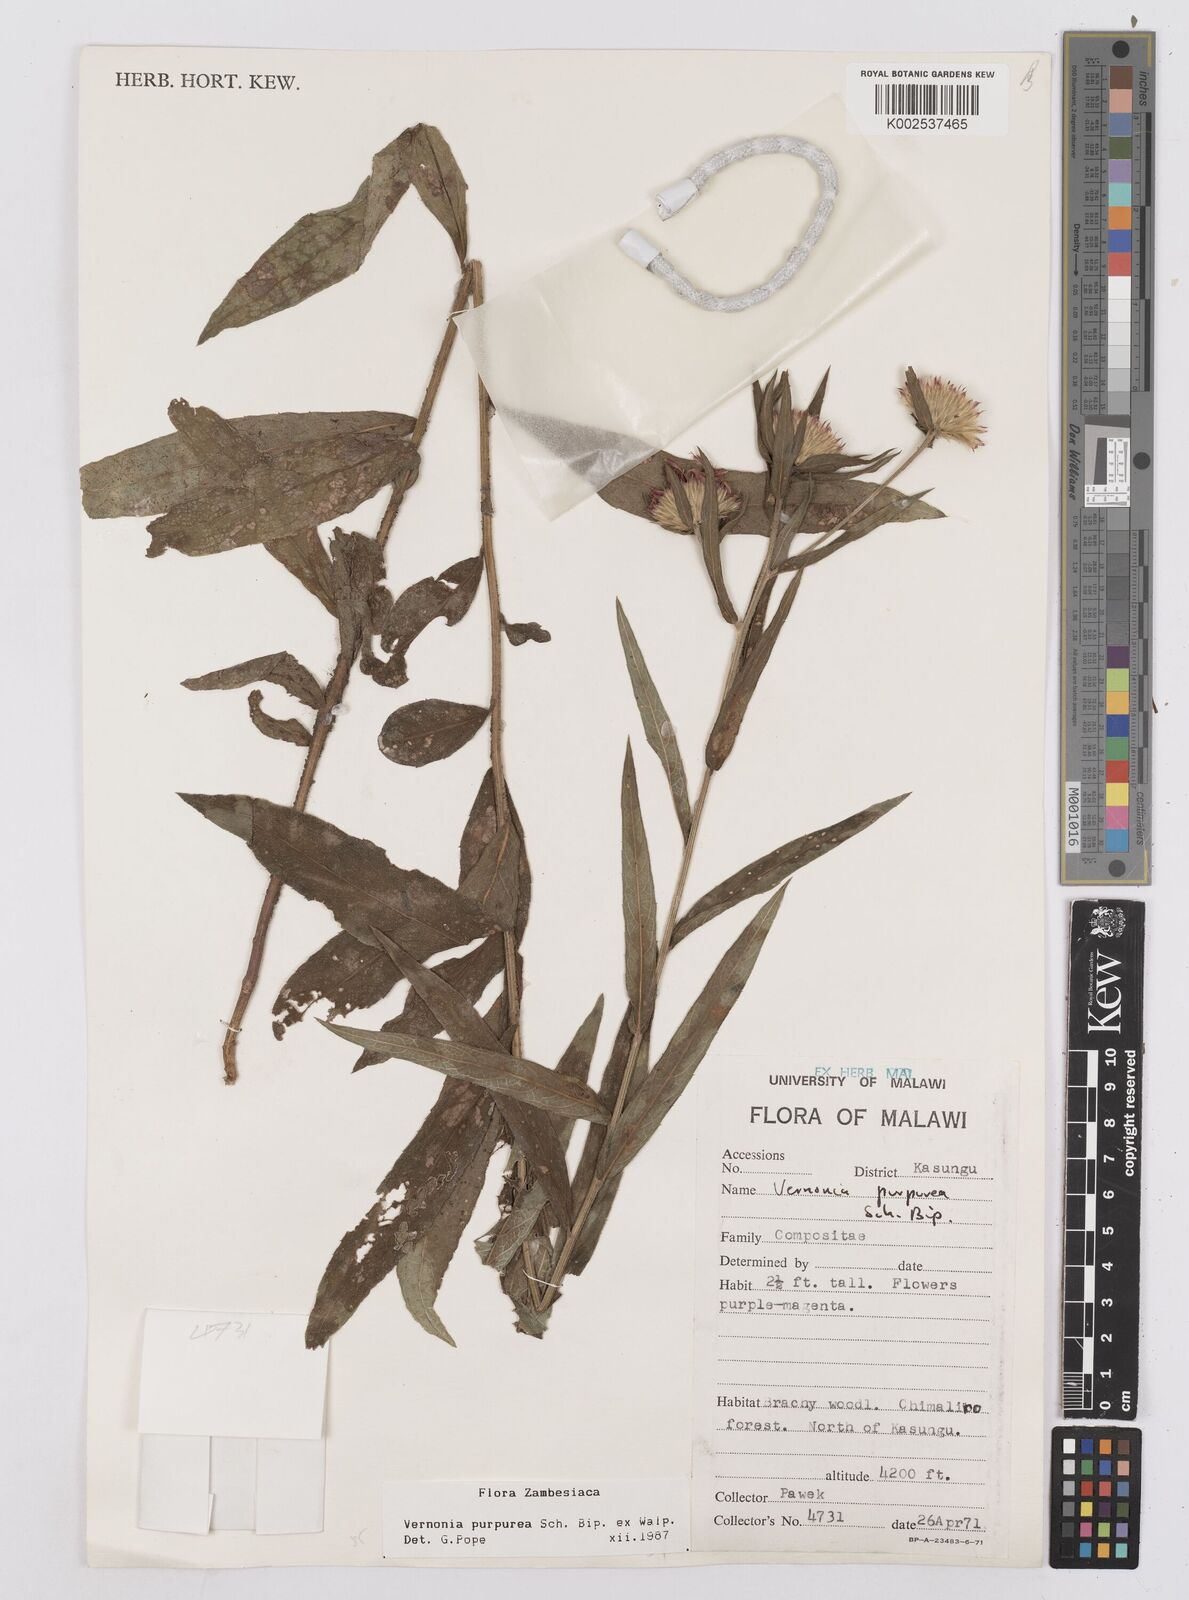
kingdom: Plantae
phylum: Tracheophyta
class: Magnoliopsida
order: Asterales
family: Asteraceae
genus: Nothovernonia
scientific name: Nothovernonia purpurea
